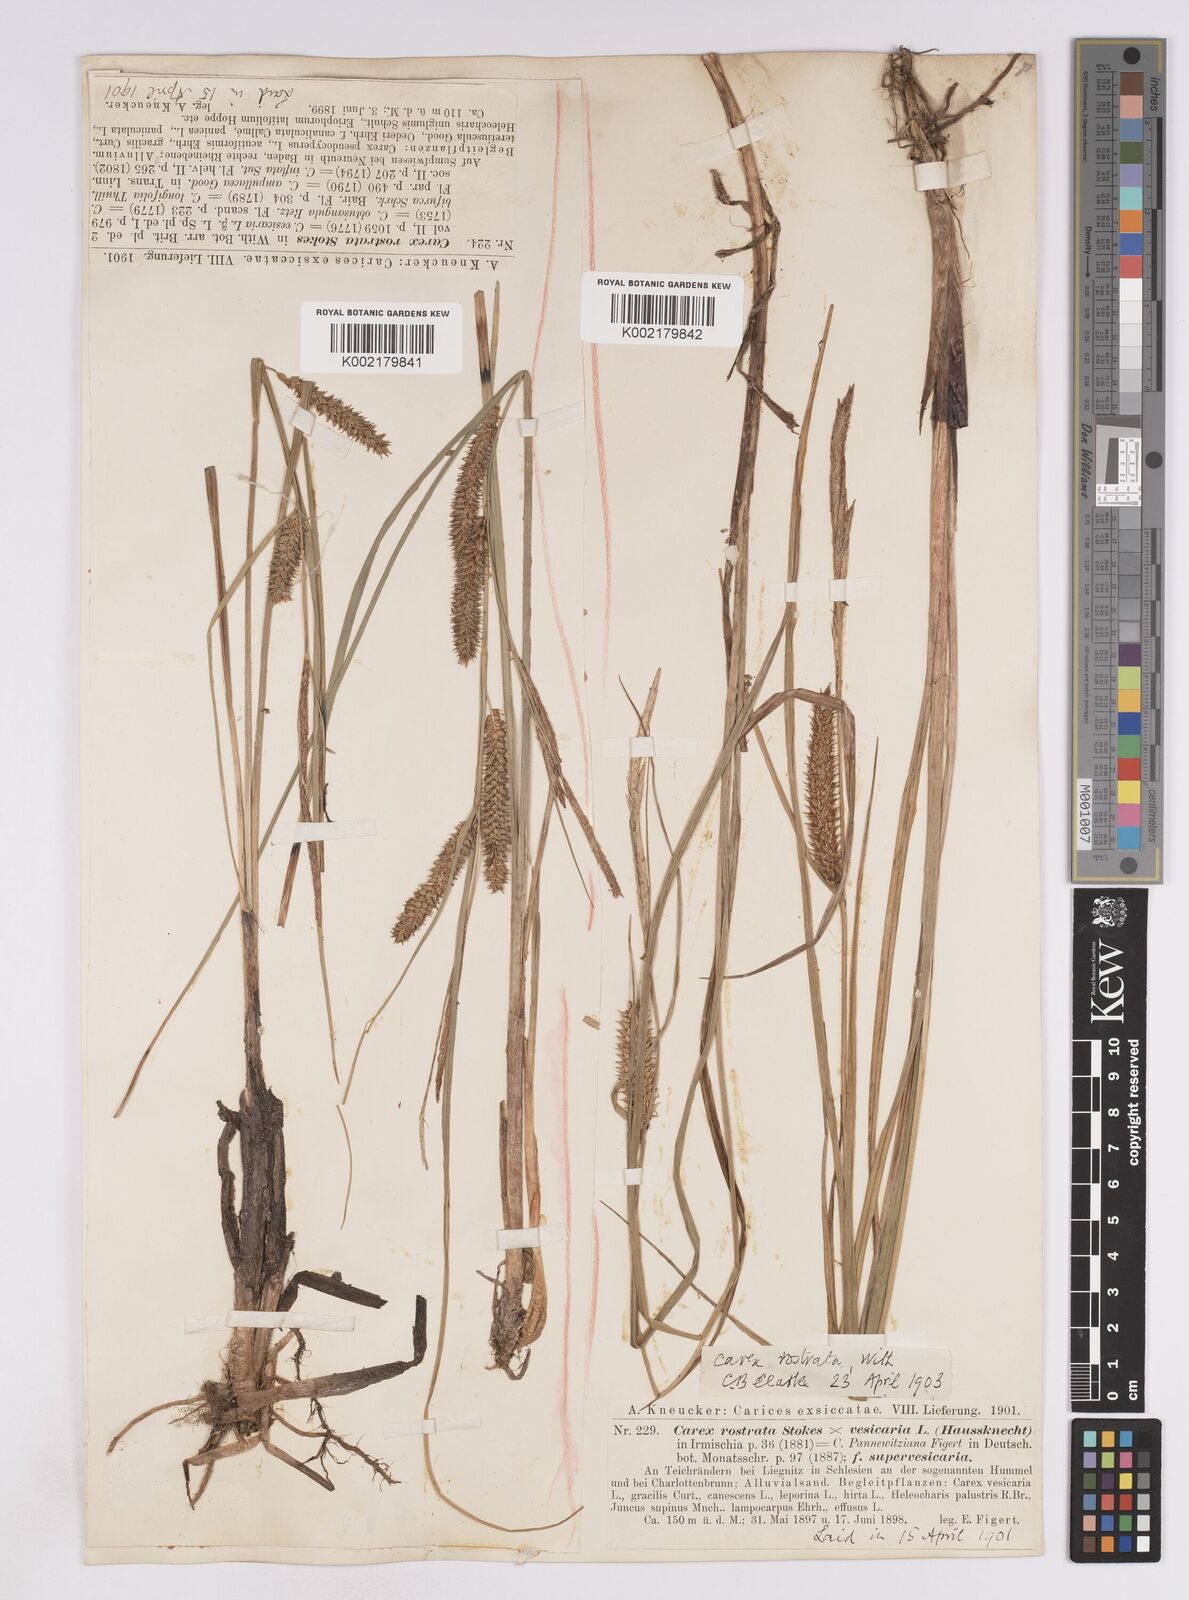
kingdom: Plantae
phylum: Tracheophyta
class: Liliopsida
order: Poales
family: Cyperaceae
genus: Carex
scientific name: Carex rostrata
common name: Bottle sedge
